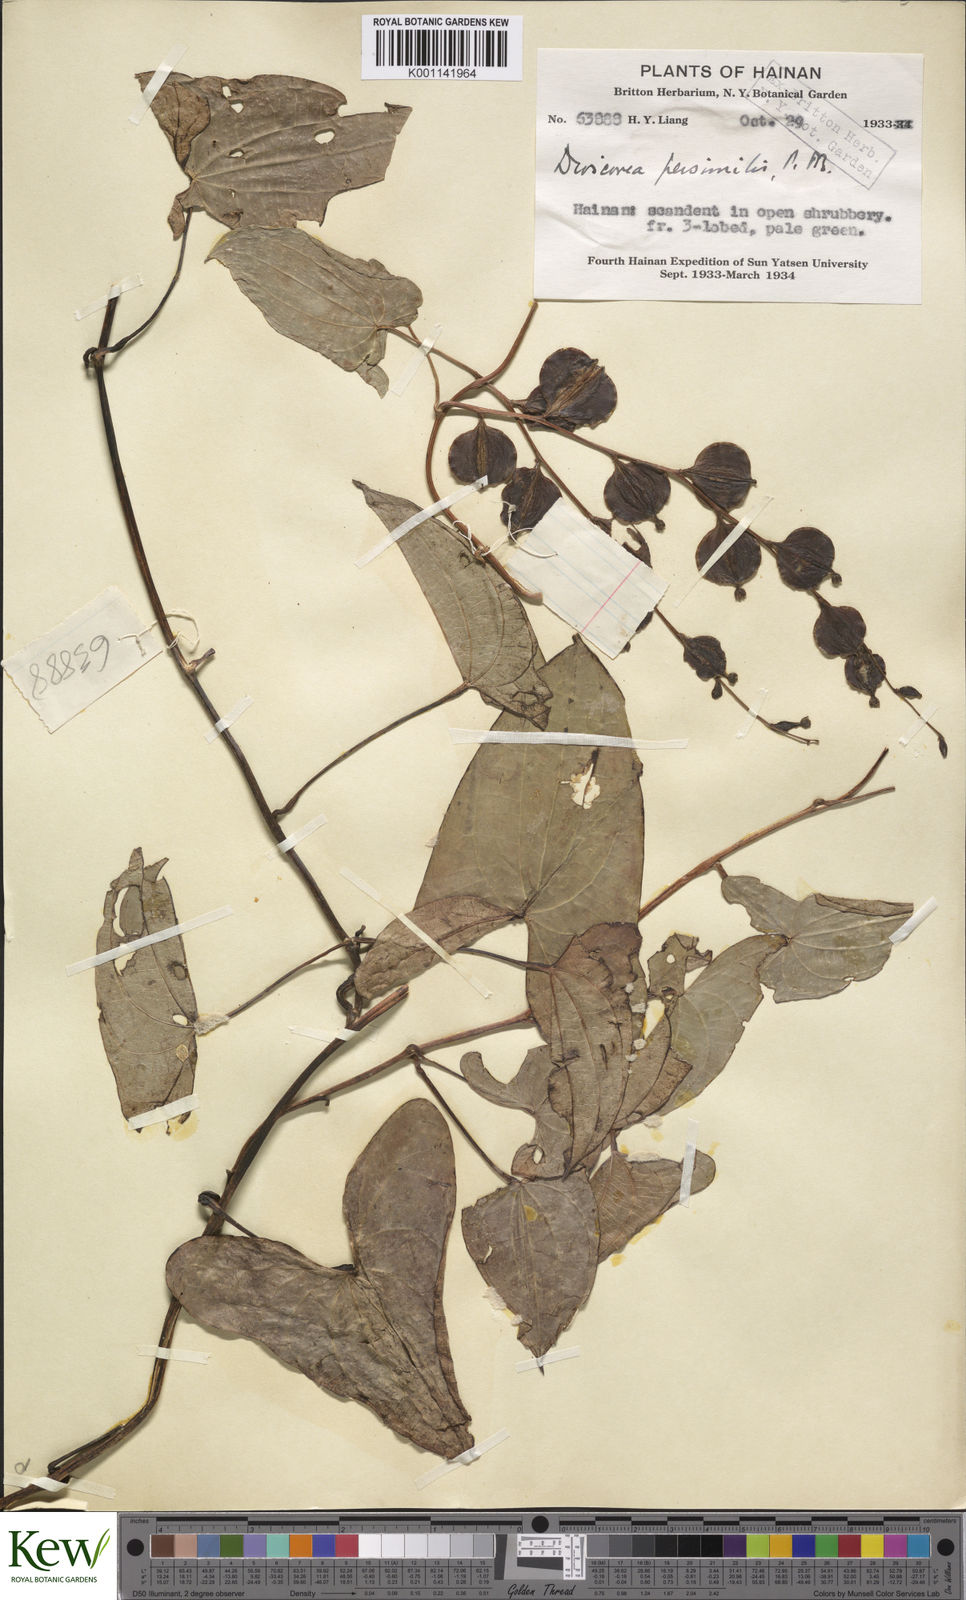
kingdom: Plantae
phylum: Tracheophyta
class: Liliopsida
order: Dioscoreales
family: Dioscoreaceae
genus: Dioscorea
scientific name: Dioscorea hamiltonii
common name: Mountain yam
